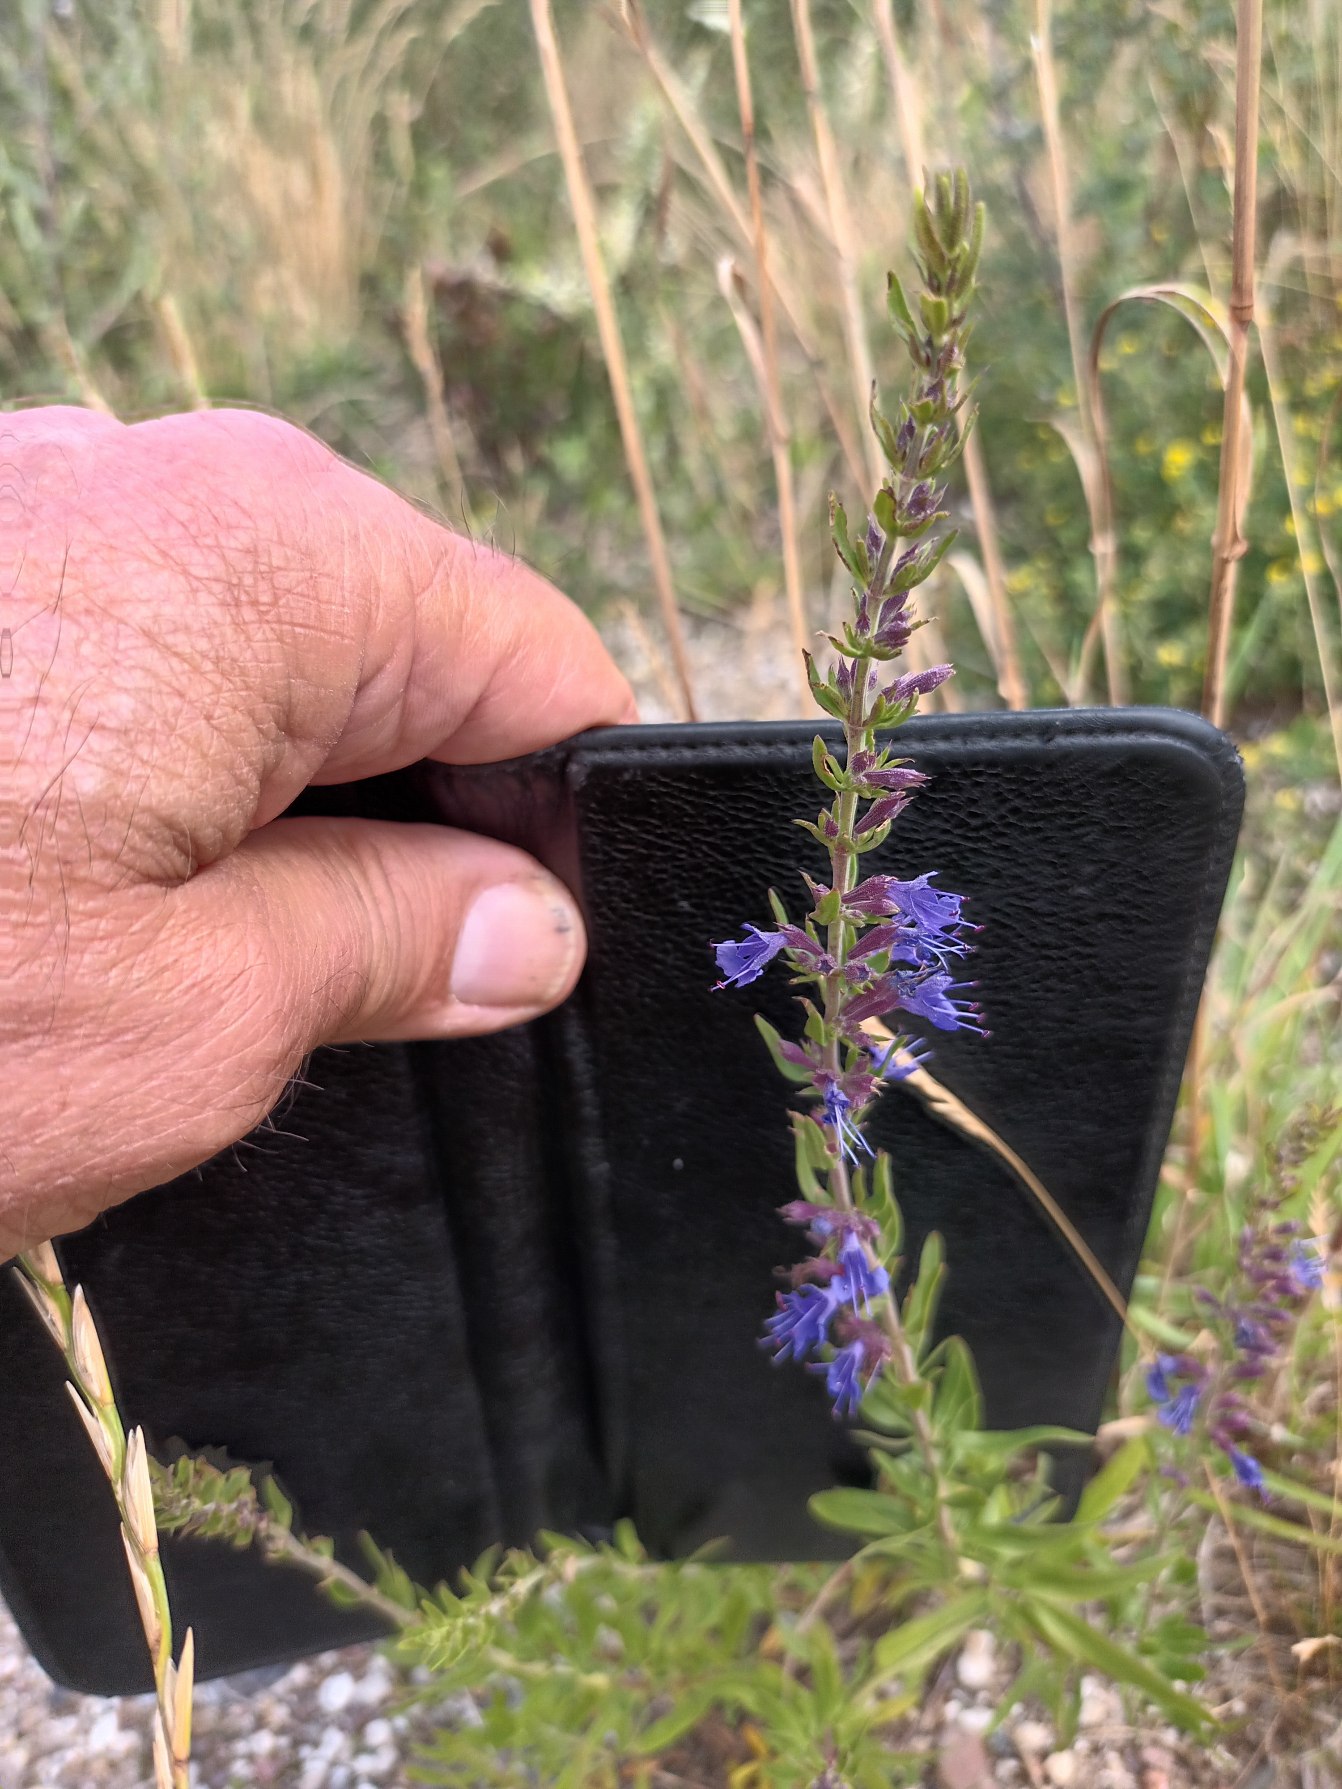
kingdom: Plantae
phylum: Tracheophyta
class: Magnoliopsida
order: Lamiales
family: Lamiaceae
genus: Hyssopus
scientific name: Hyssopus officinalis
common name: Isop
